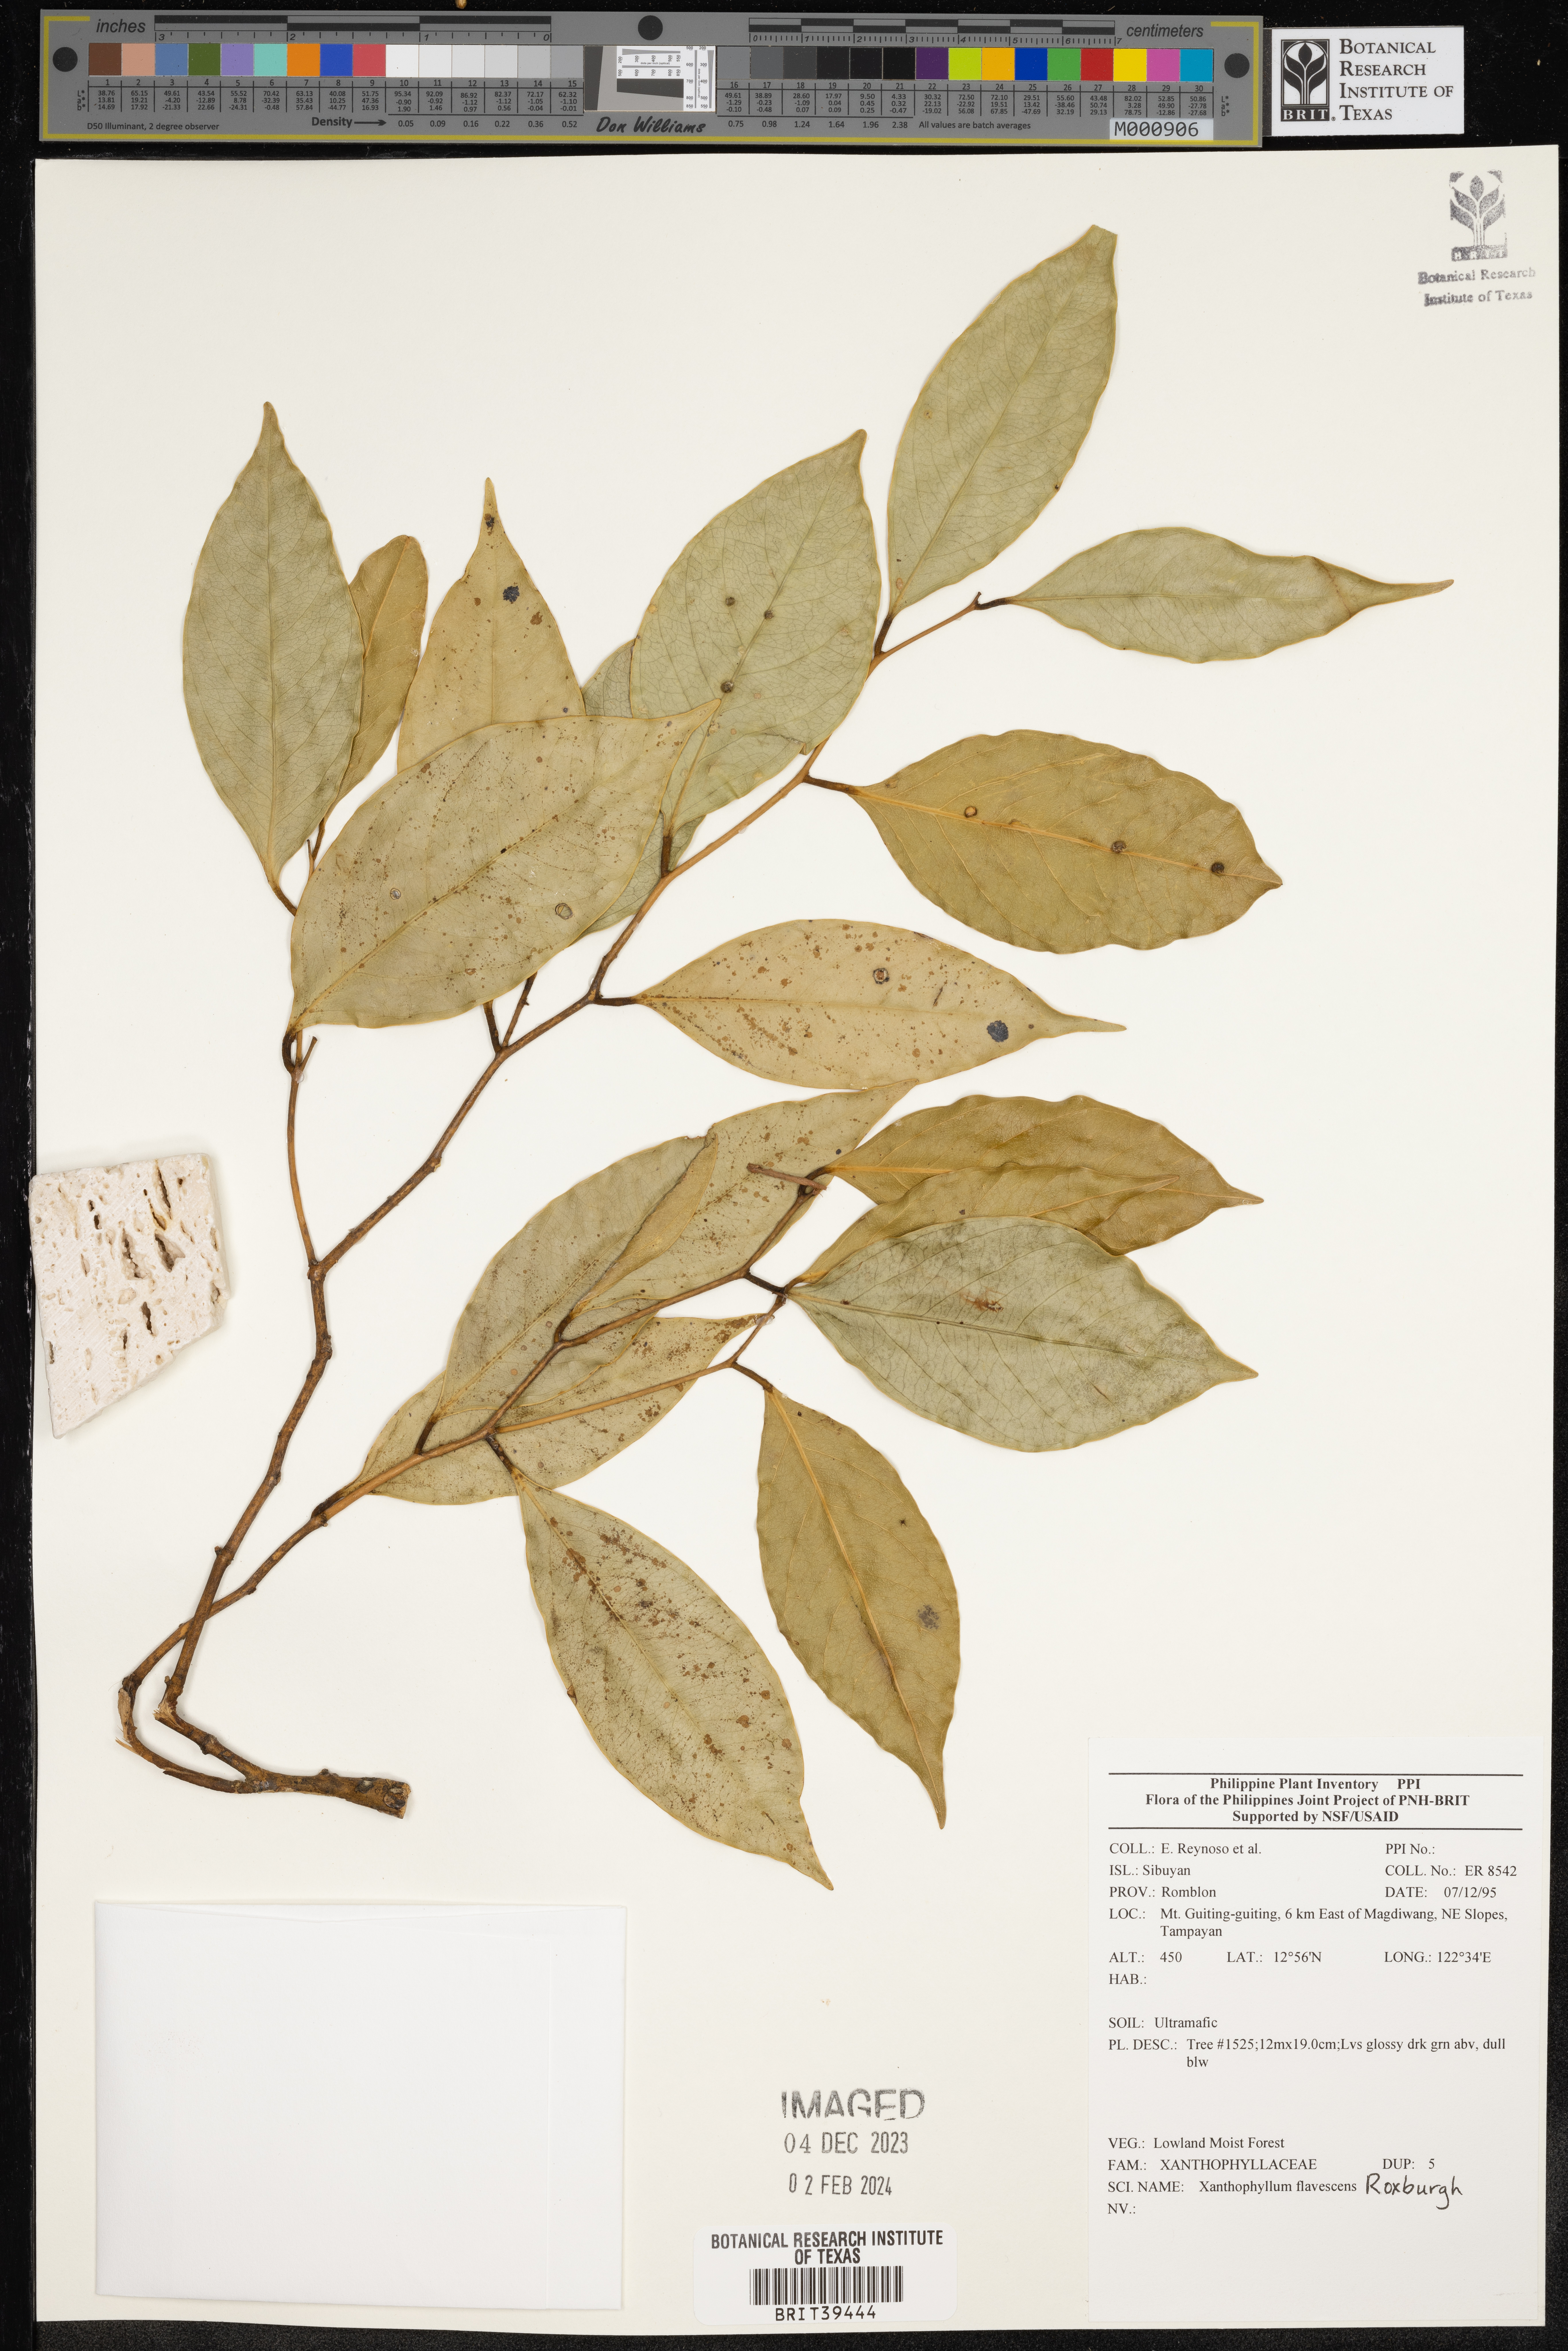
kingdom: Plantae
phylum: Tracheophyta
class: Magnoliopsida
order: Fabales
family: Polygalaceae
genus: Xanthophyllum
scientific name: Xanthophyllum flavescens
